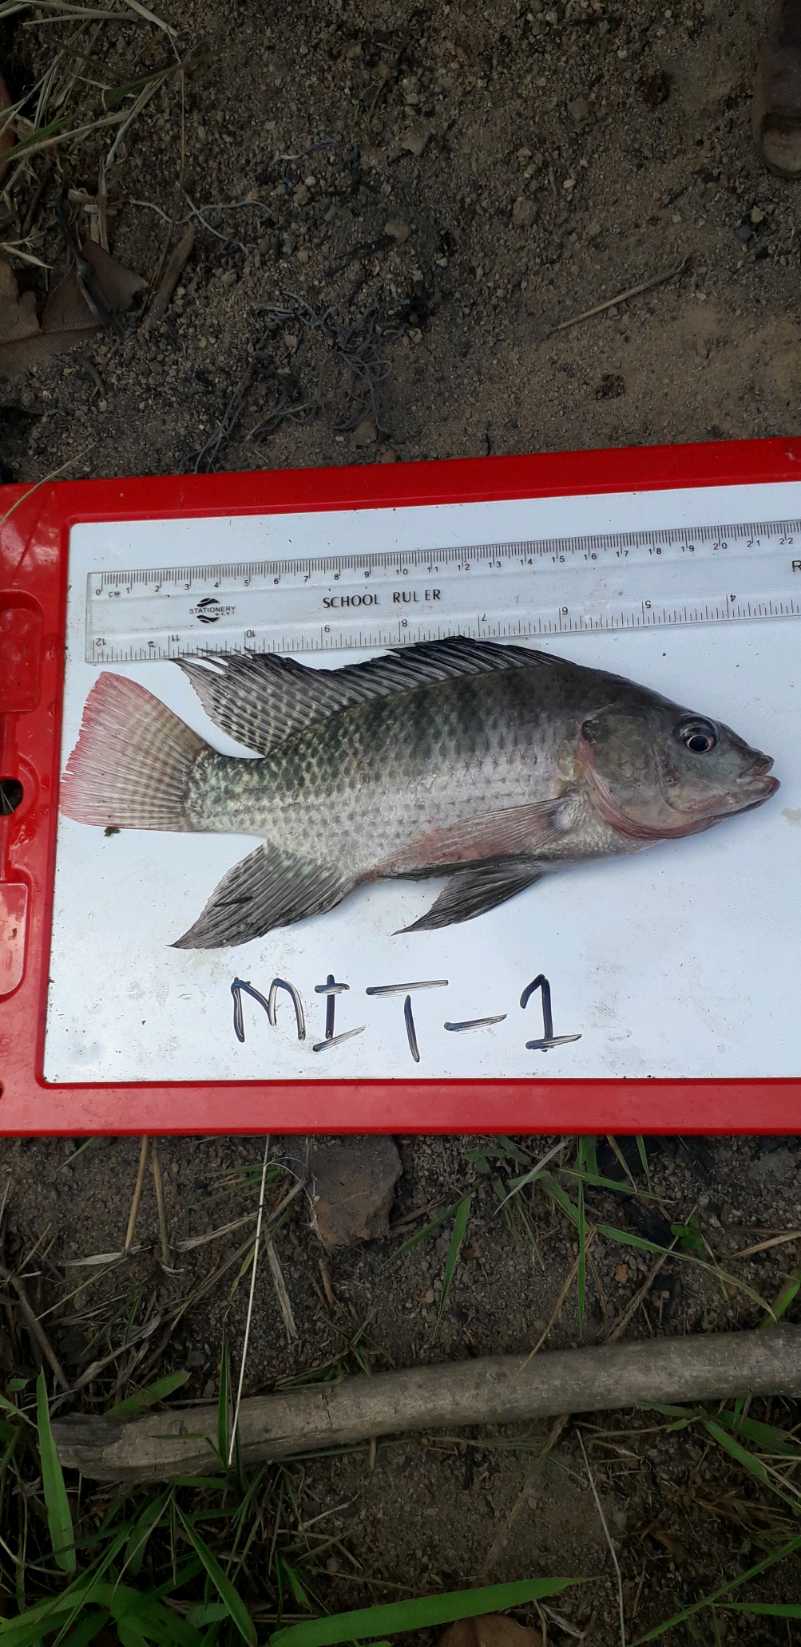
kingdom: Animalia
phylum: Chordata
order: Perciformes
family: Cichlidae
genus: Oreochromis
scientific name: Oreochromis niloticus
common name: Nile tilapia
